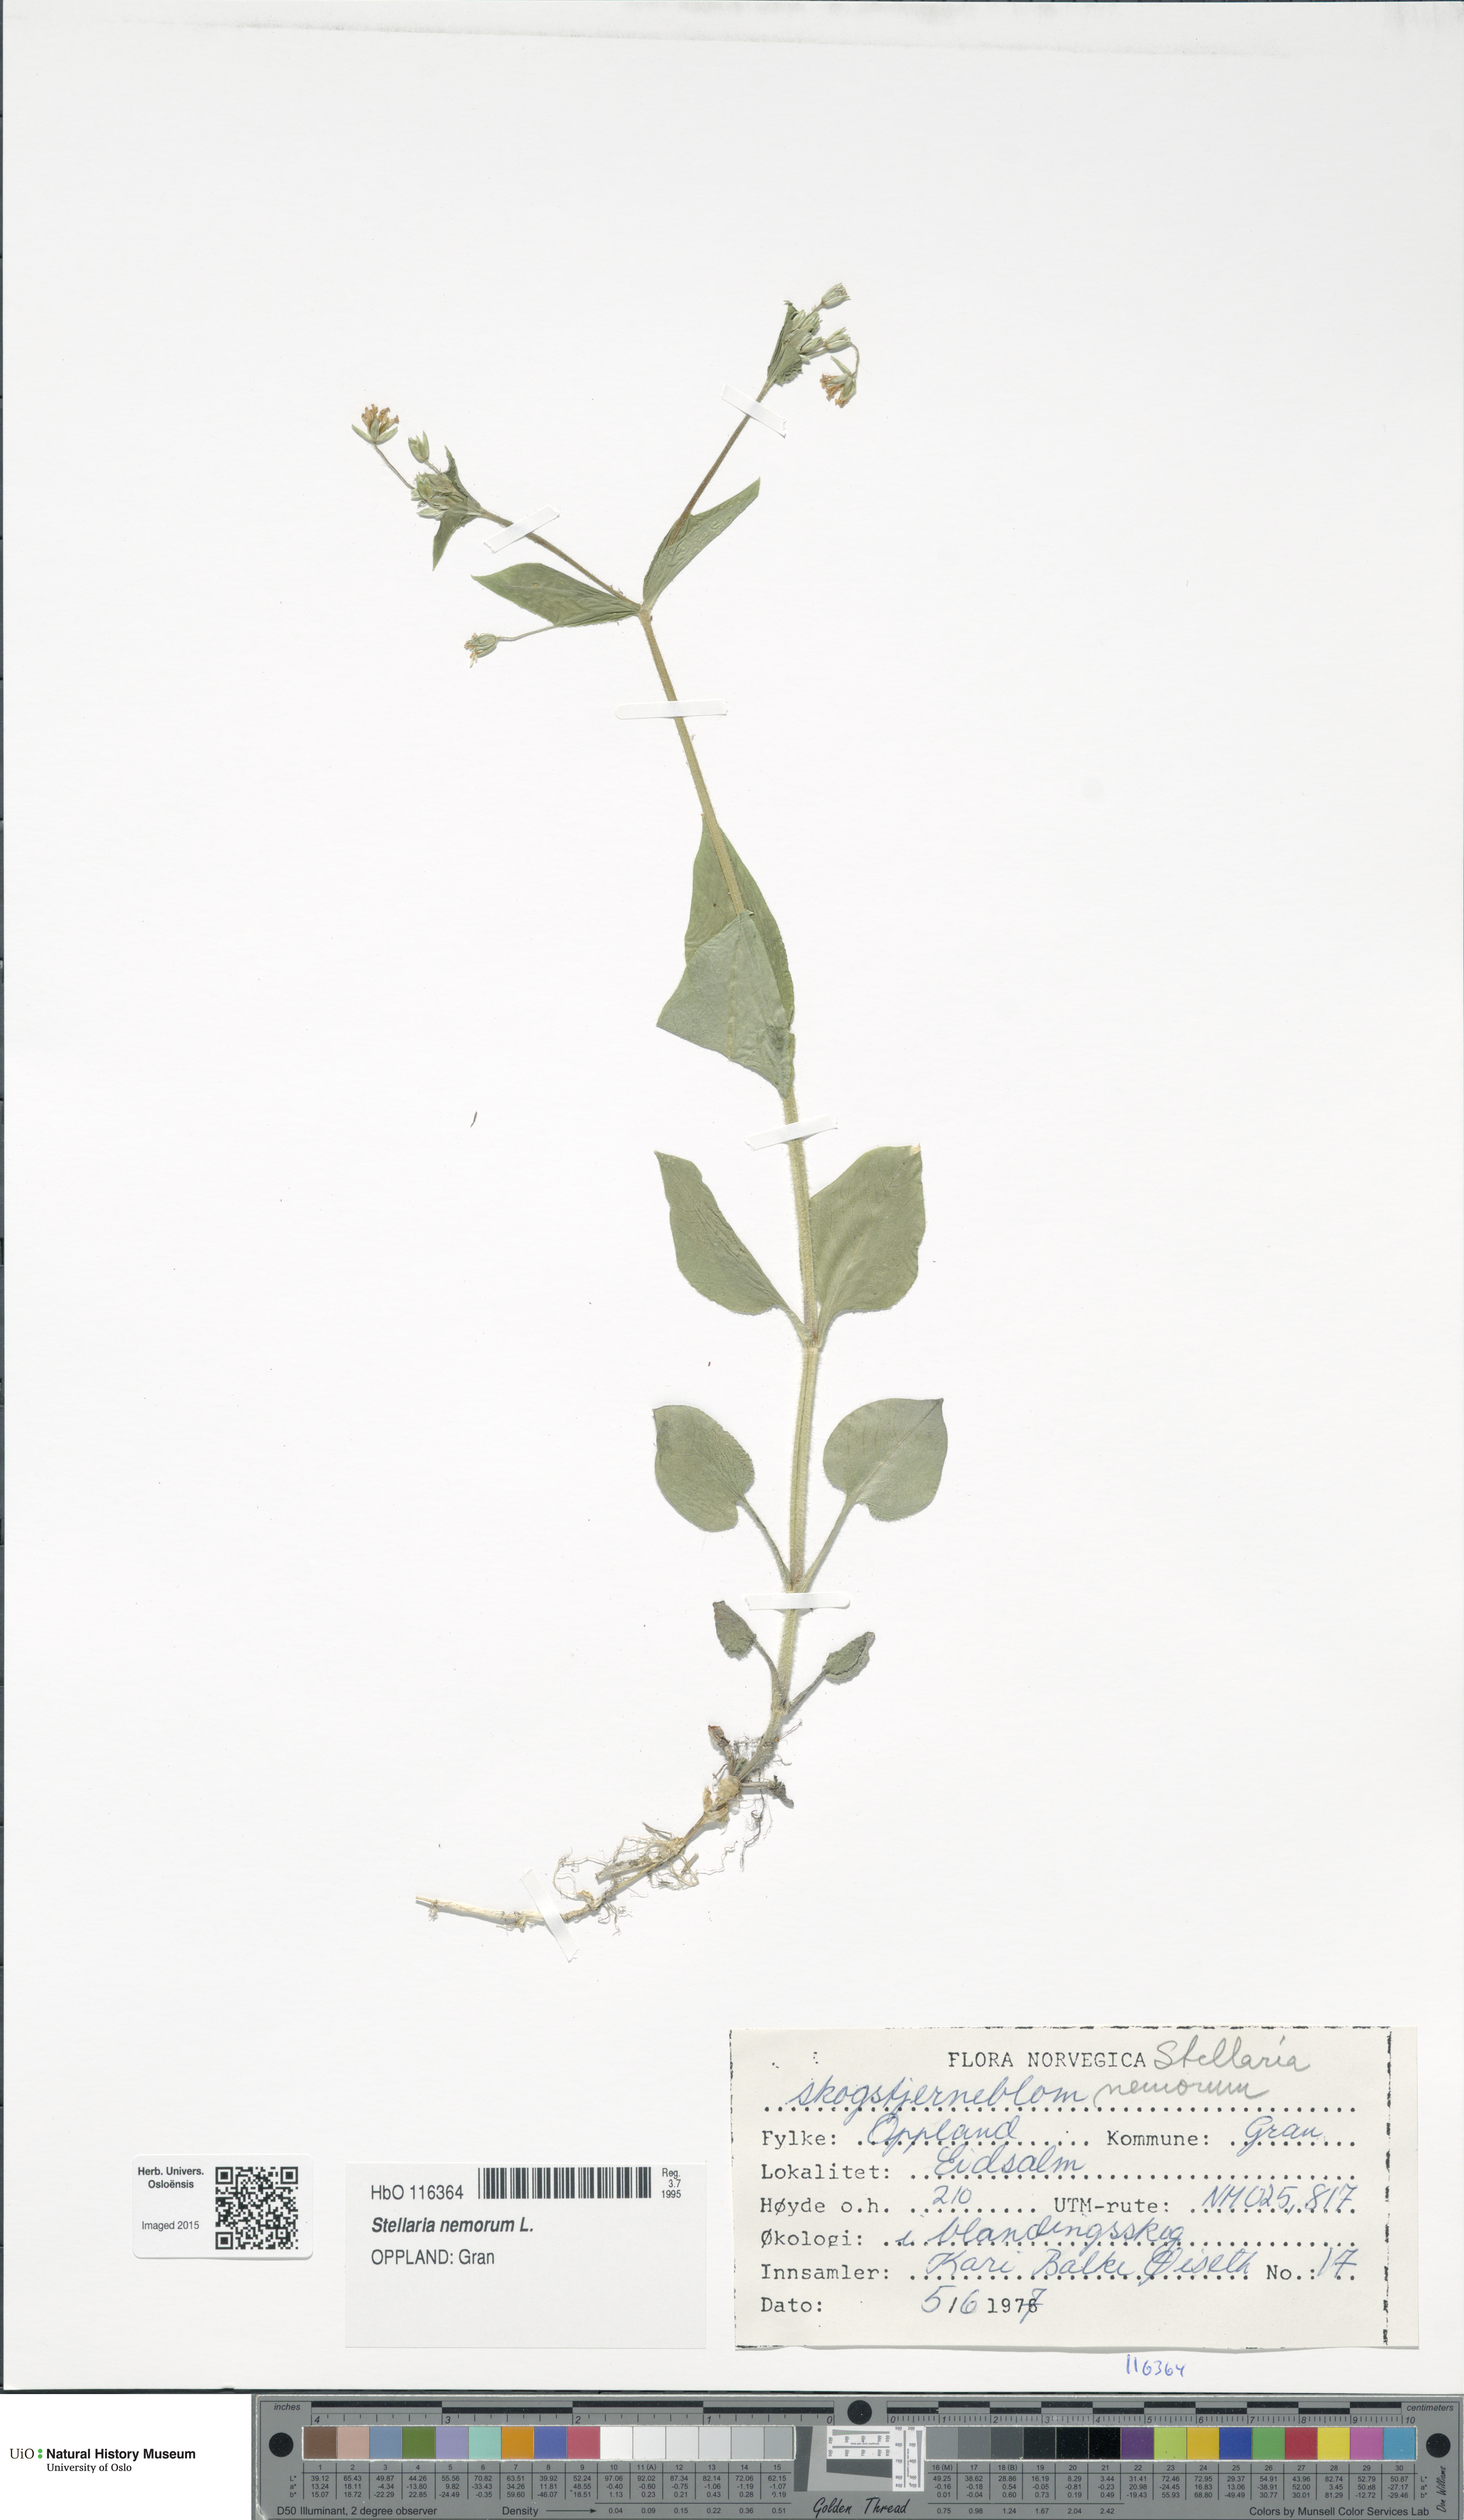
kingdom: Plantae
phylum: Tracheophyta
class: Magnoliopsida
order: Caryophyllales
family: Caryophyllaceae
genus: Stellaria
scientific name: Stellaria nemorum
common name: Wood stitchwort
